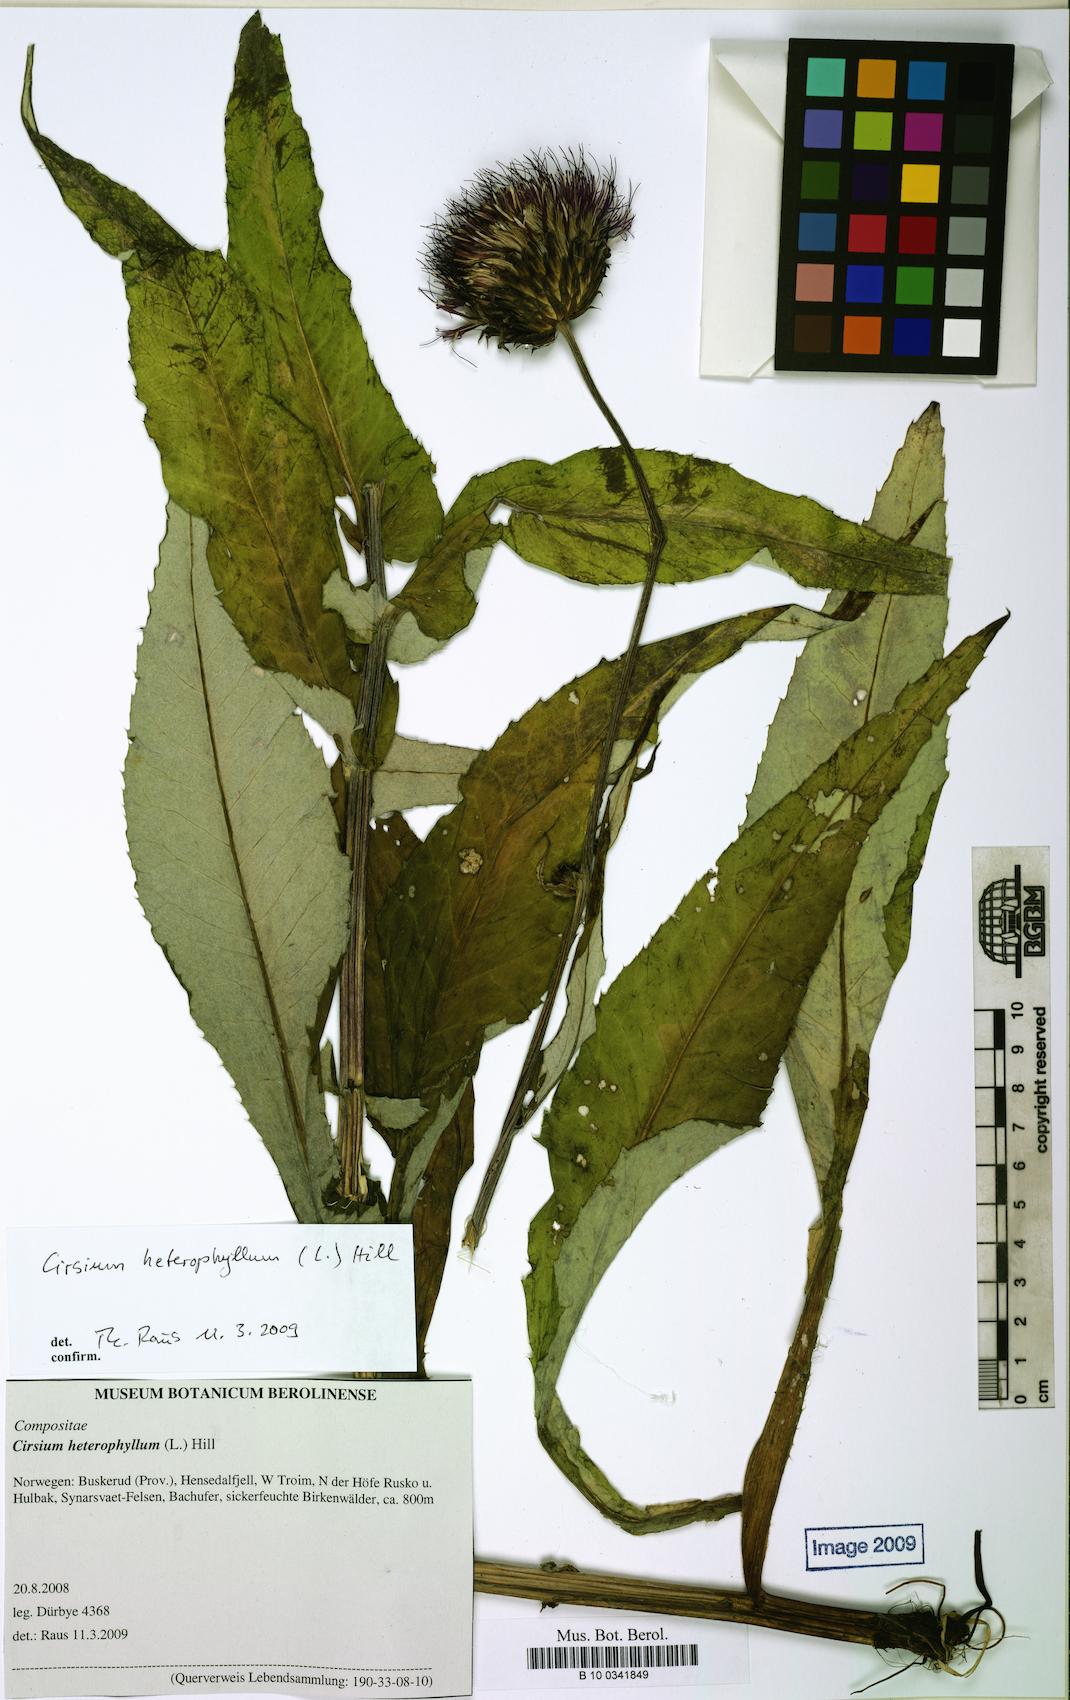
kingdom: Plantae
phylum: Tracheophyta
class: Magnoliopsida
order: Asterales
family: Asteraceae
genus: Cirsium
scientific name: Cirsium heterophyllum
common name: Melancholy thistle
